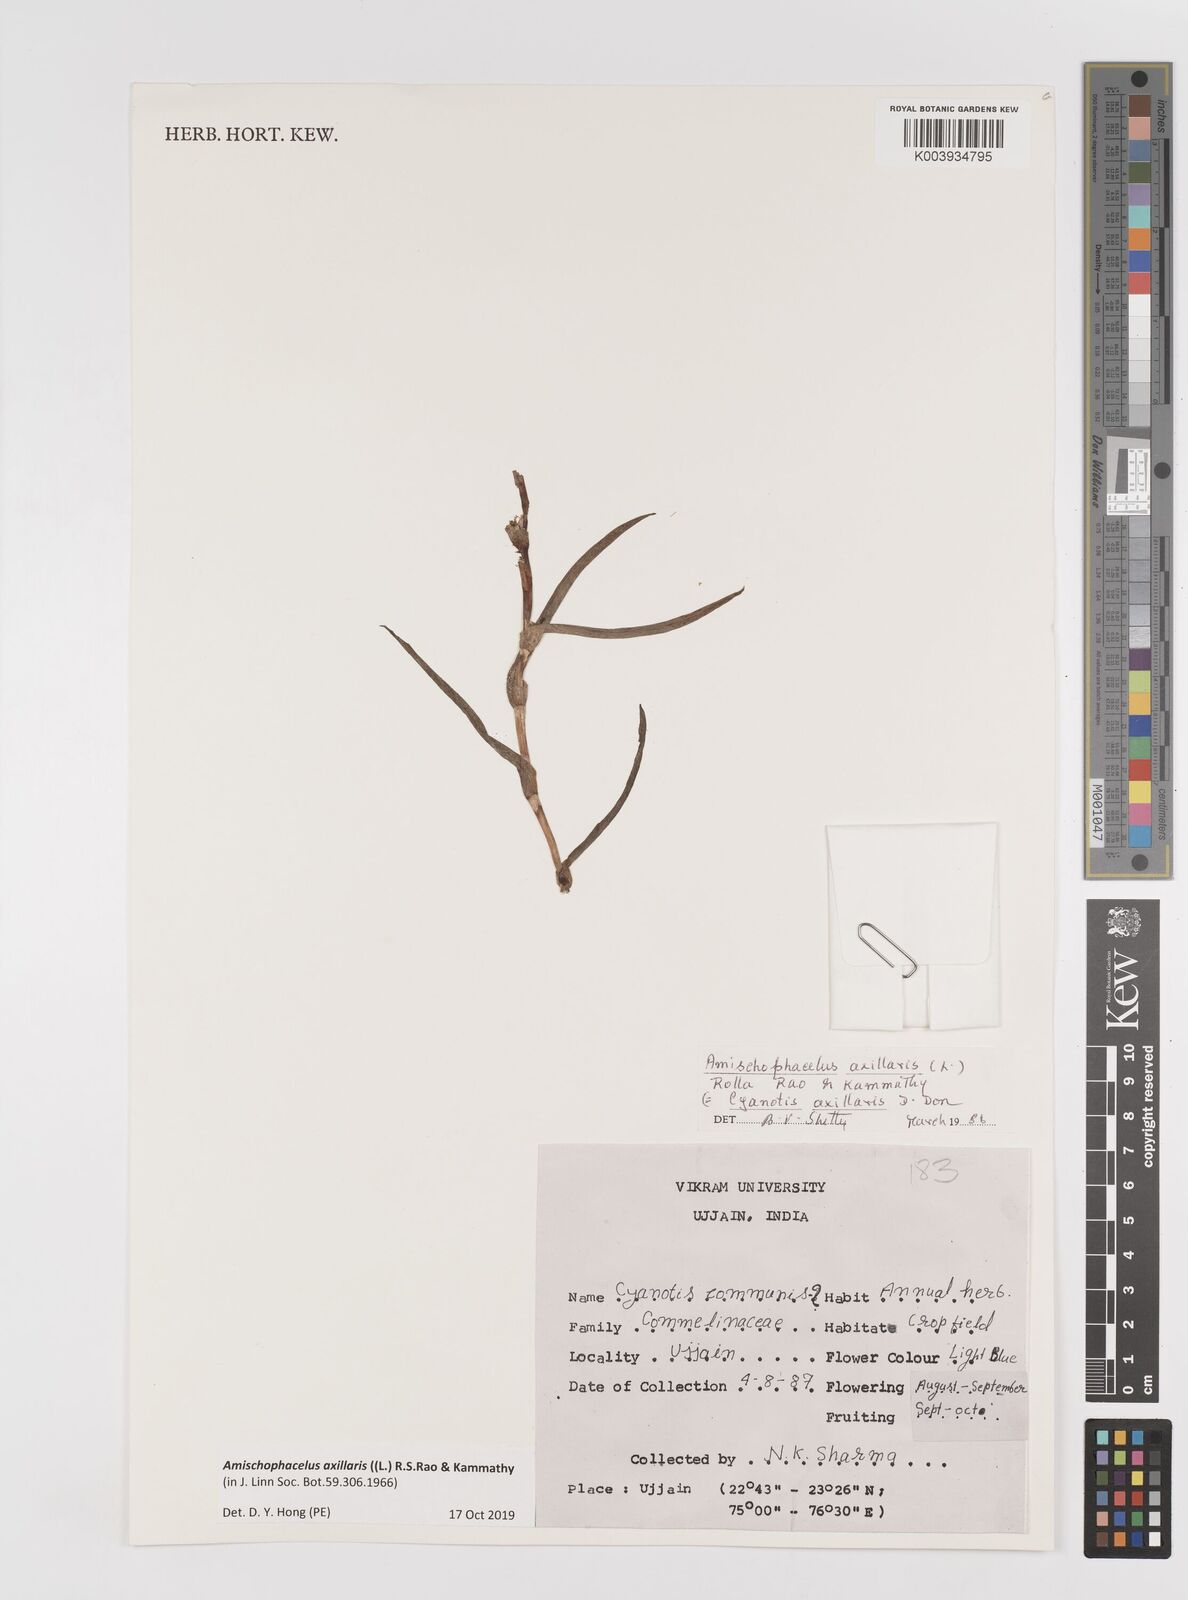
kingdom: Plantae
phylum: Tracheophyta
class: Liliopsida
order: Commelinales
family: Commelinaceae
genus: Cyanotis
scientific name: Cyanotis axillaris
